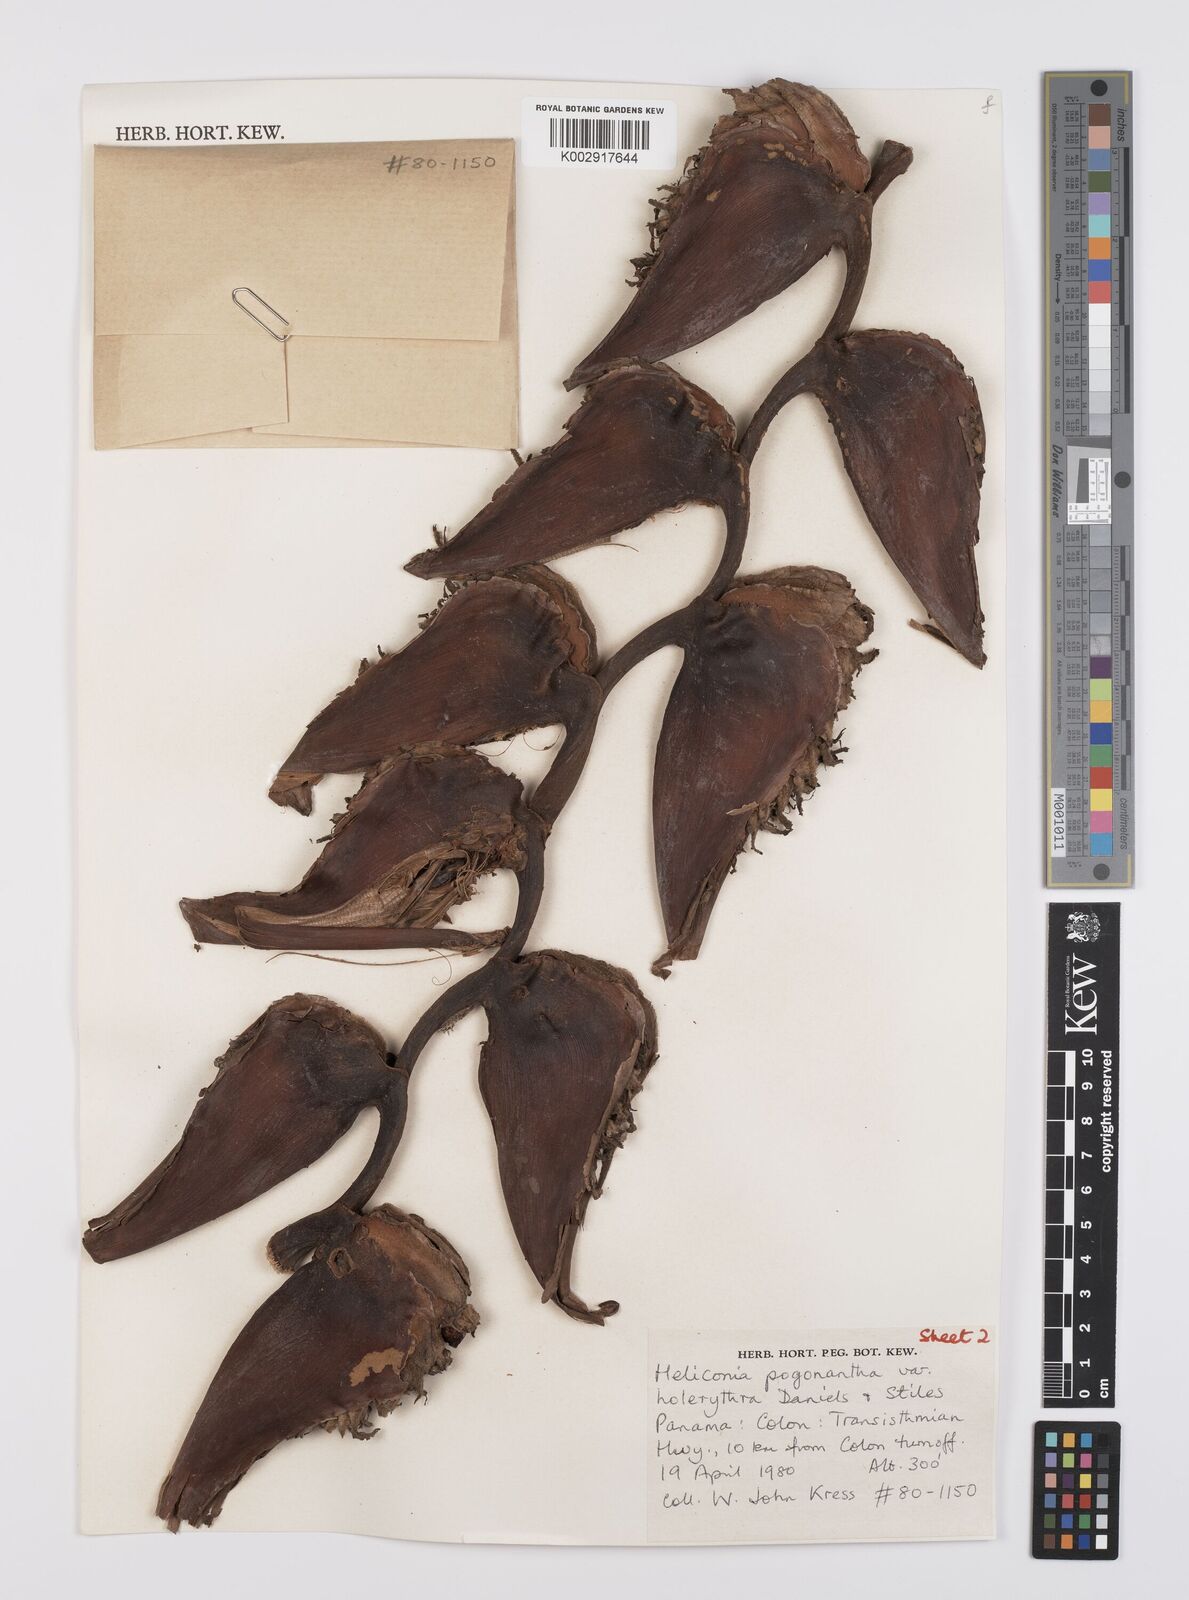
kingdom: Plantae
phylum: Tracheophyta
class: Liliopsida
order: Zingiberales
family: Heliconiaceae
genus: Heliconia
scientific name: Heliconia pogonantha
